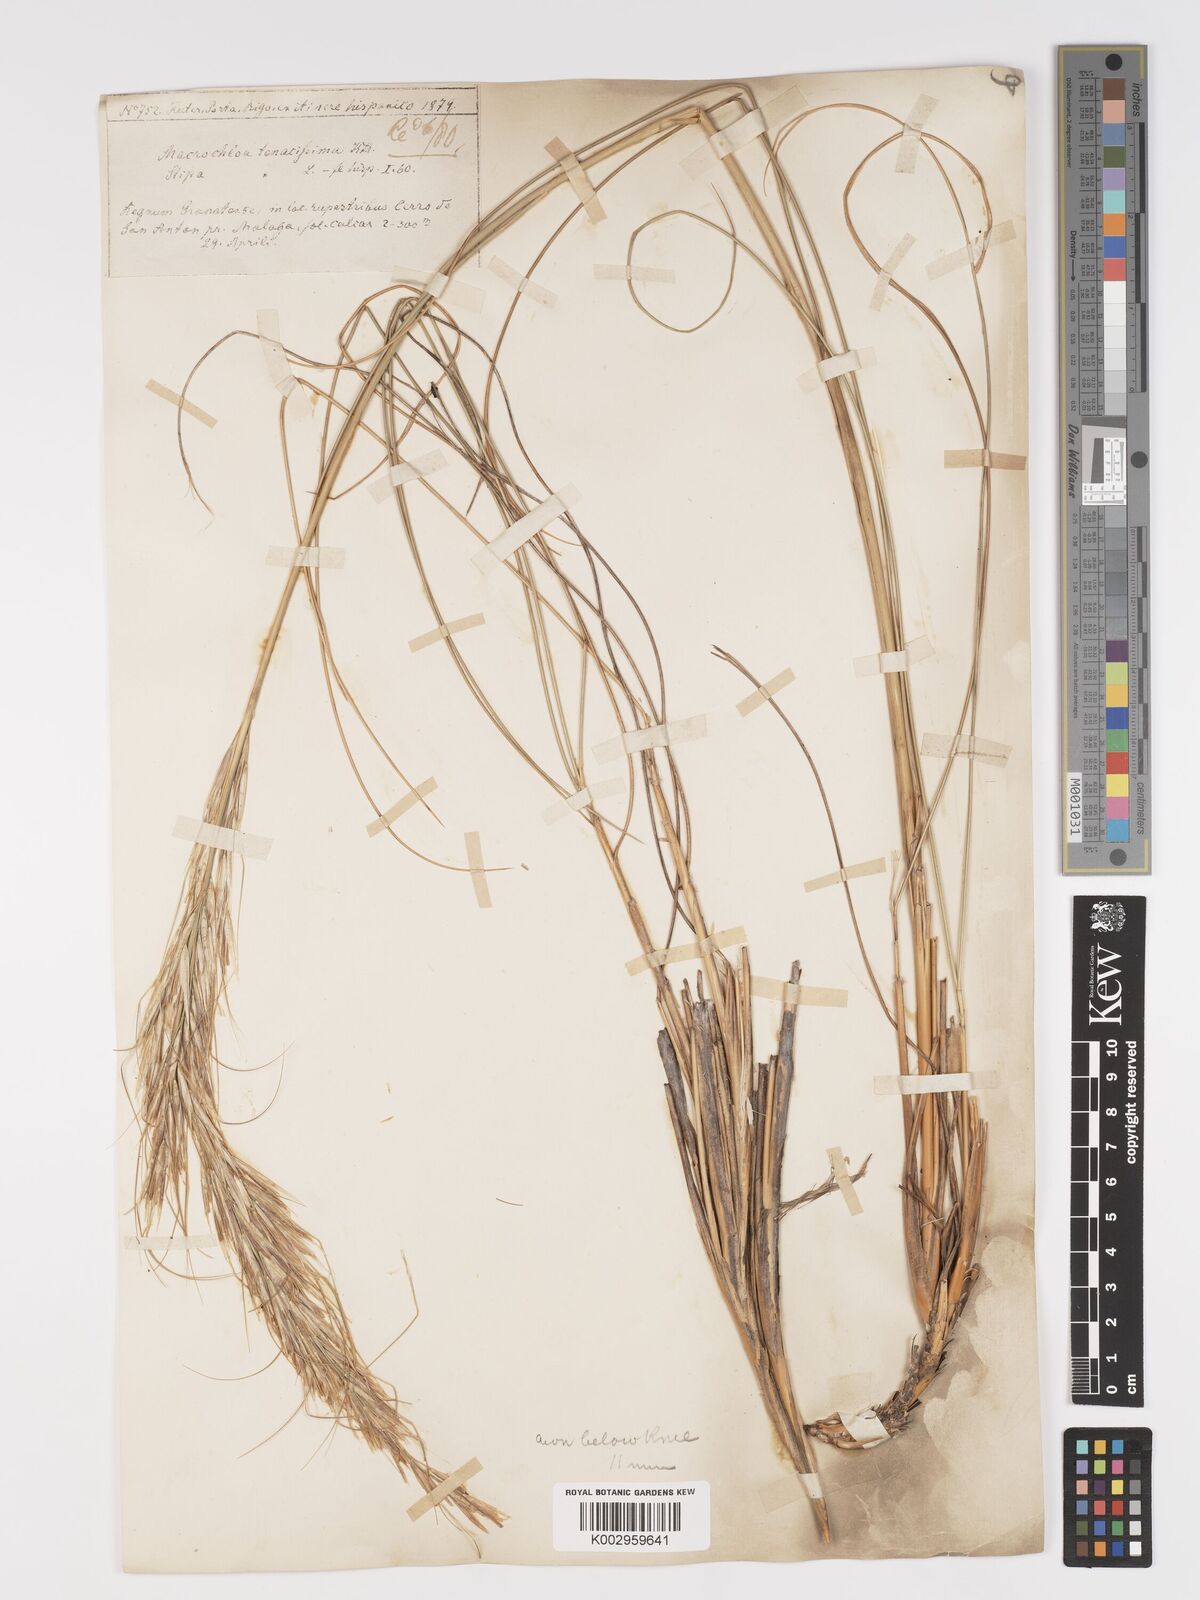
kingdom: Plantae
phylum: Tracheophyta
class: Liliopsida
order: Poales
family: Poaceae
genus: Macrochloa
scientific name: Macrochloa tenacissima
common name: Alfa grass
